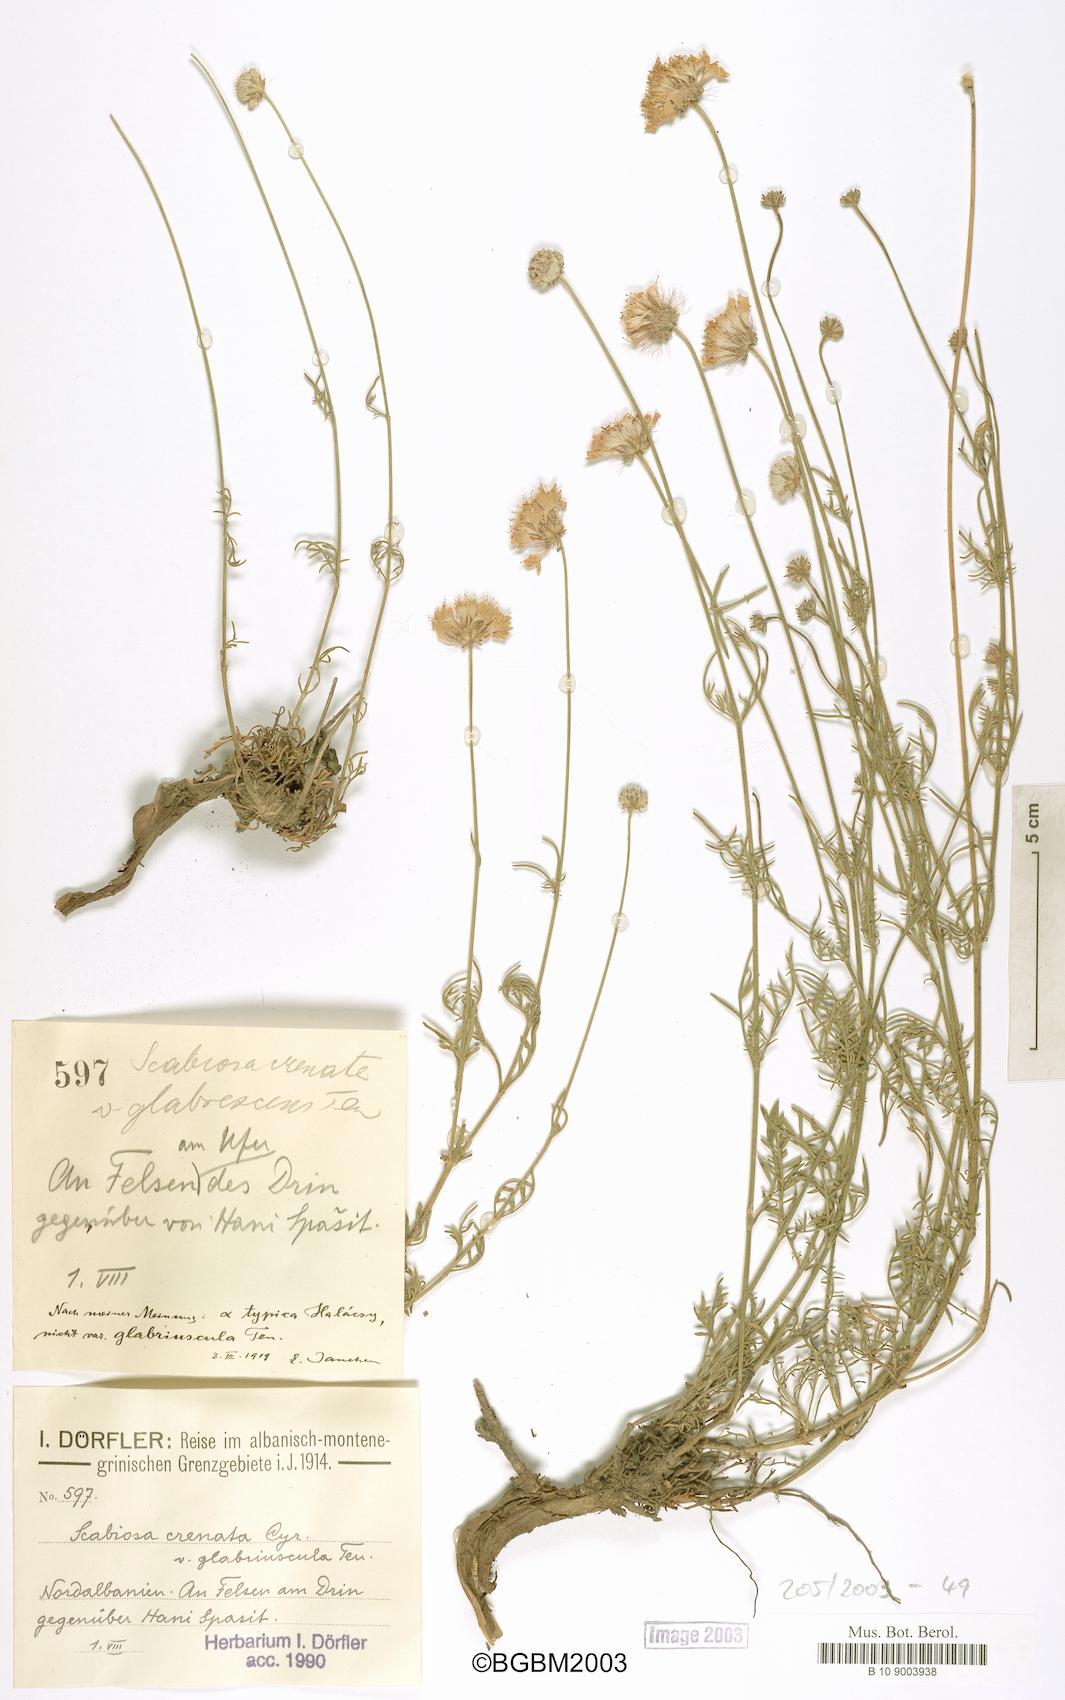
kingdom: Plantae
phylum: Tracheophyta
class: Magnoliopsida
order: Dipsacales
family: Caprifoliaceae
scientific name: Caprifoliaceae
